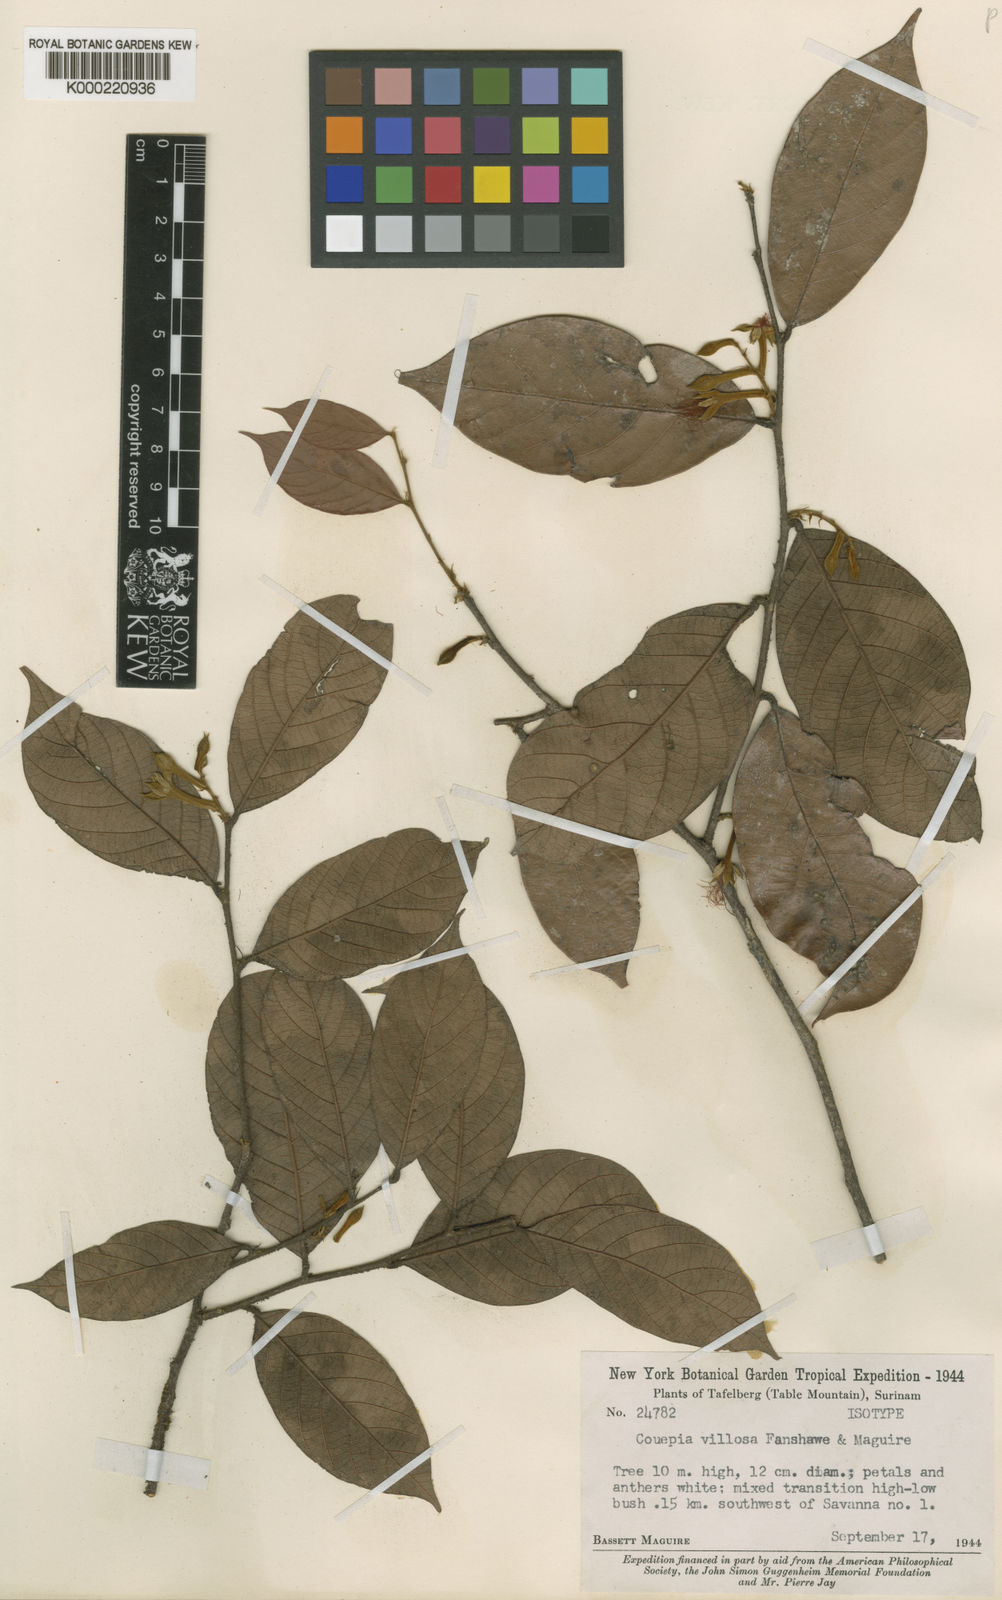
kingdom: Plantae
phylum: Tracheophyta
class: Magnoliopsida
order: Malpighiales
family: Chrysobalanaceae
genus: Gaulettia
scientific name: Gaulettia parillo
